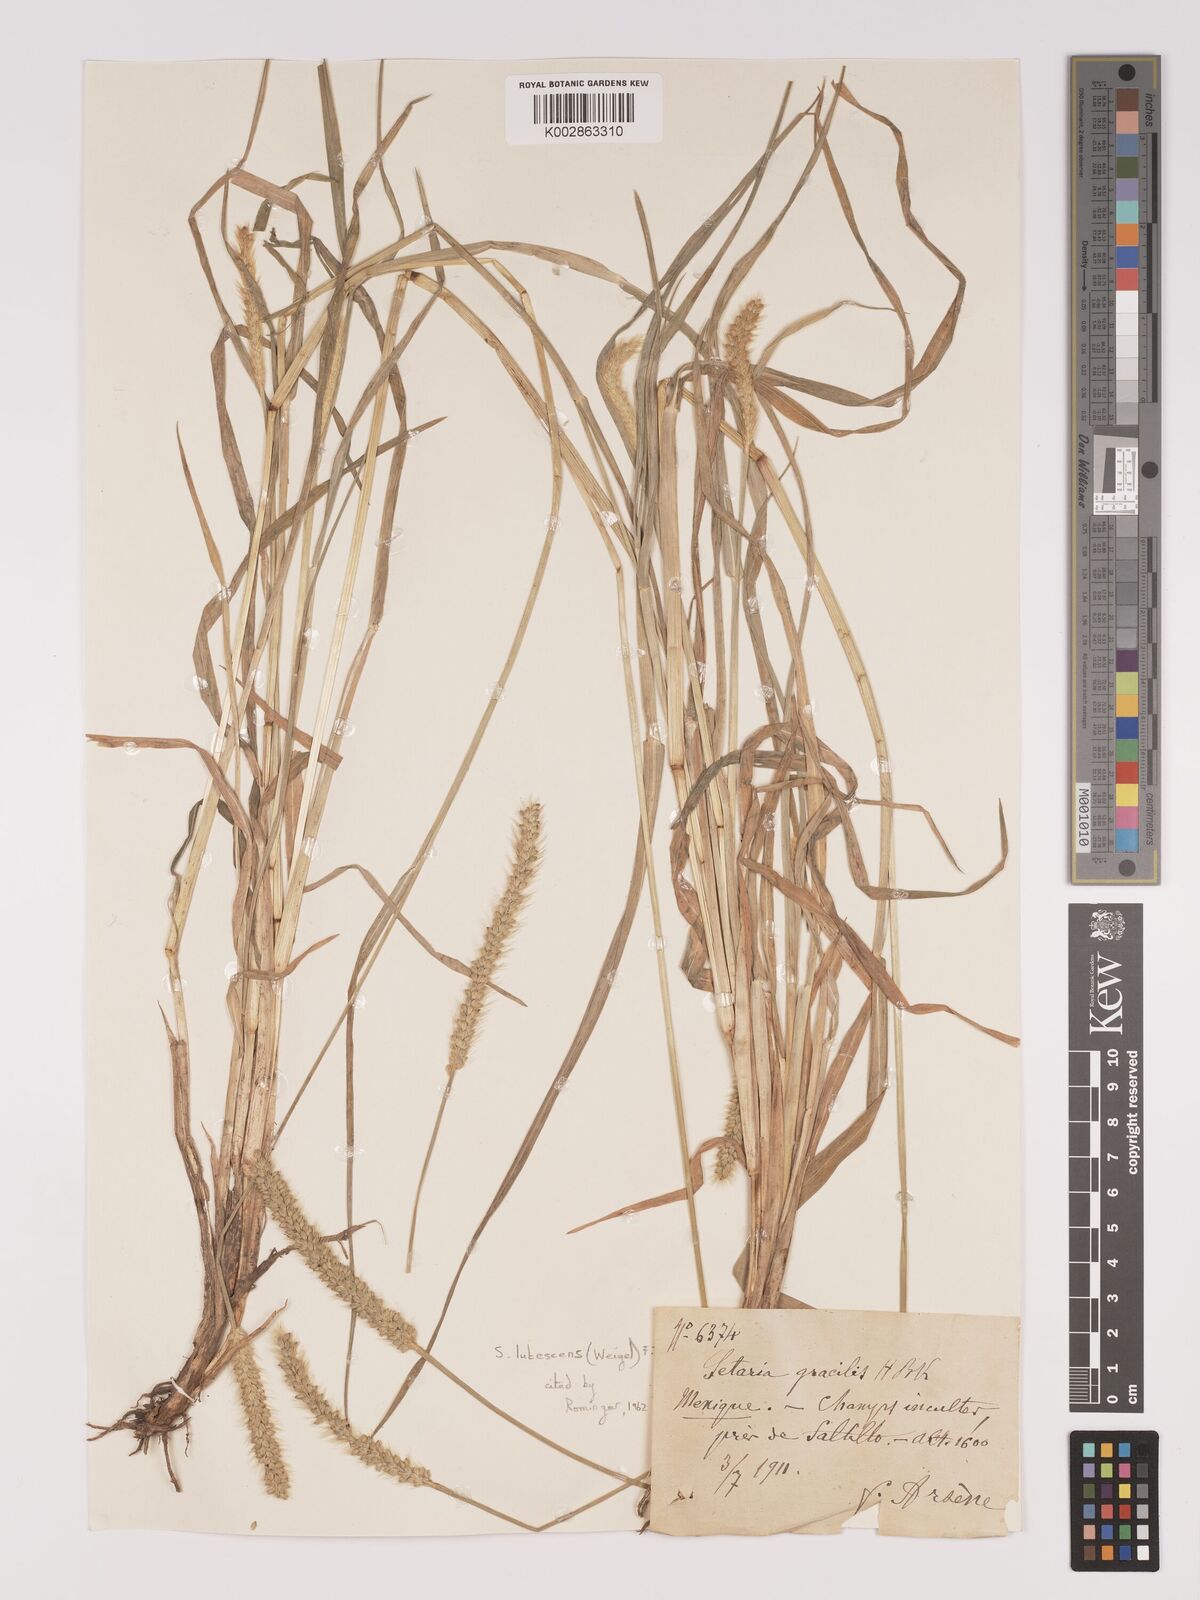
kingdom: Plantae
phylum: Tracheophyta
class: Liliopsida
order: Poales
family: Poaceae
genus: Setaria
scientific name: Setaria pumila
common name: Yellow bristle-grass
